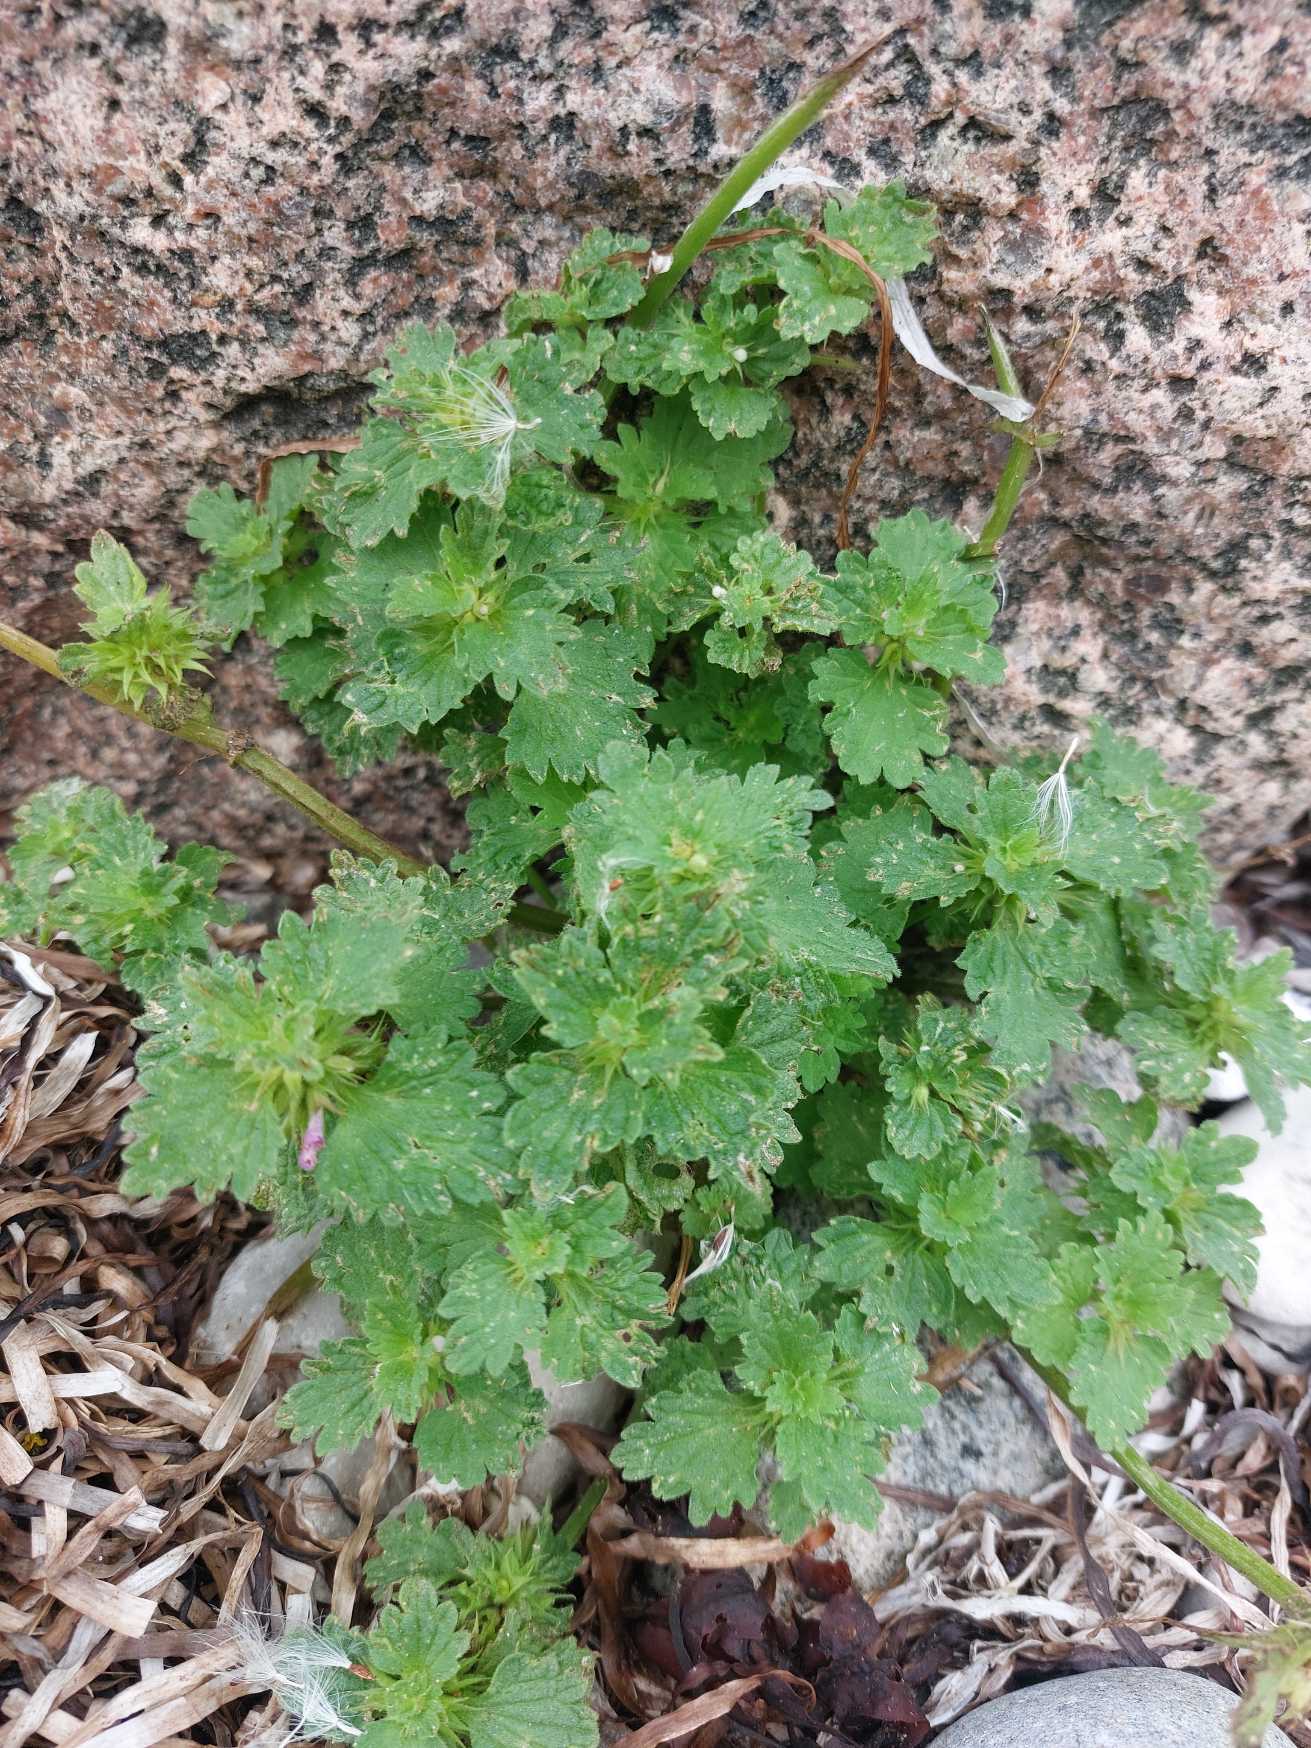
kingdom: Plantae
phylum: Tracheophyta
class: Magnoliopsida
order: Lamiales
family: Lamiaceae
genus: Lamium
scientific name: Lamium hybridum
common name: Fliget tvetand
